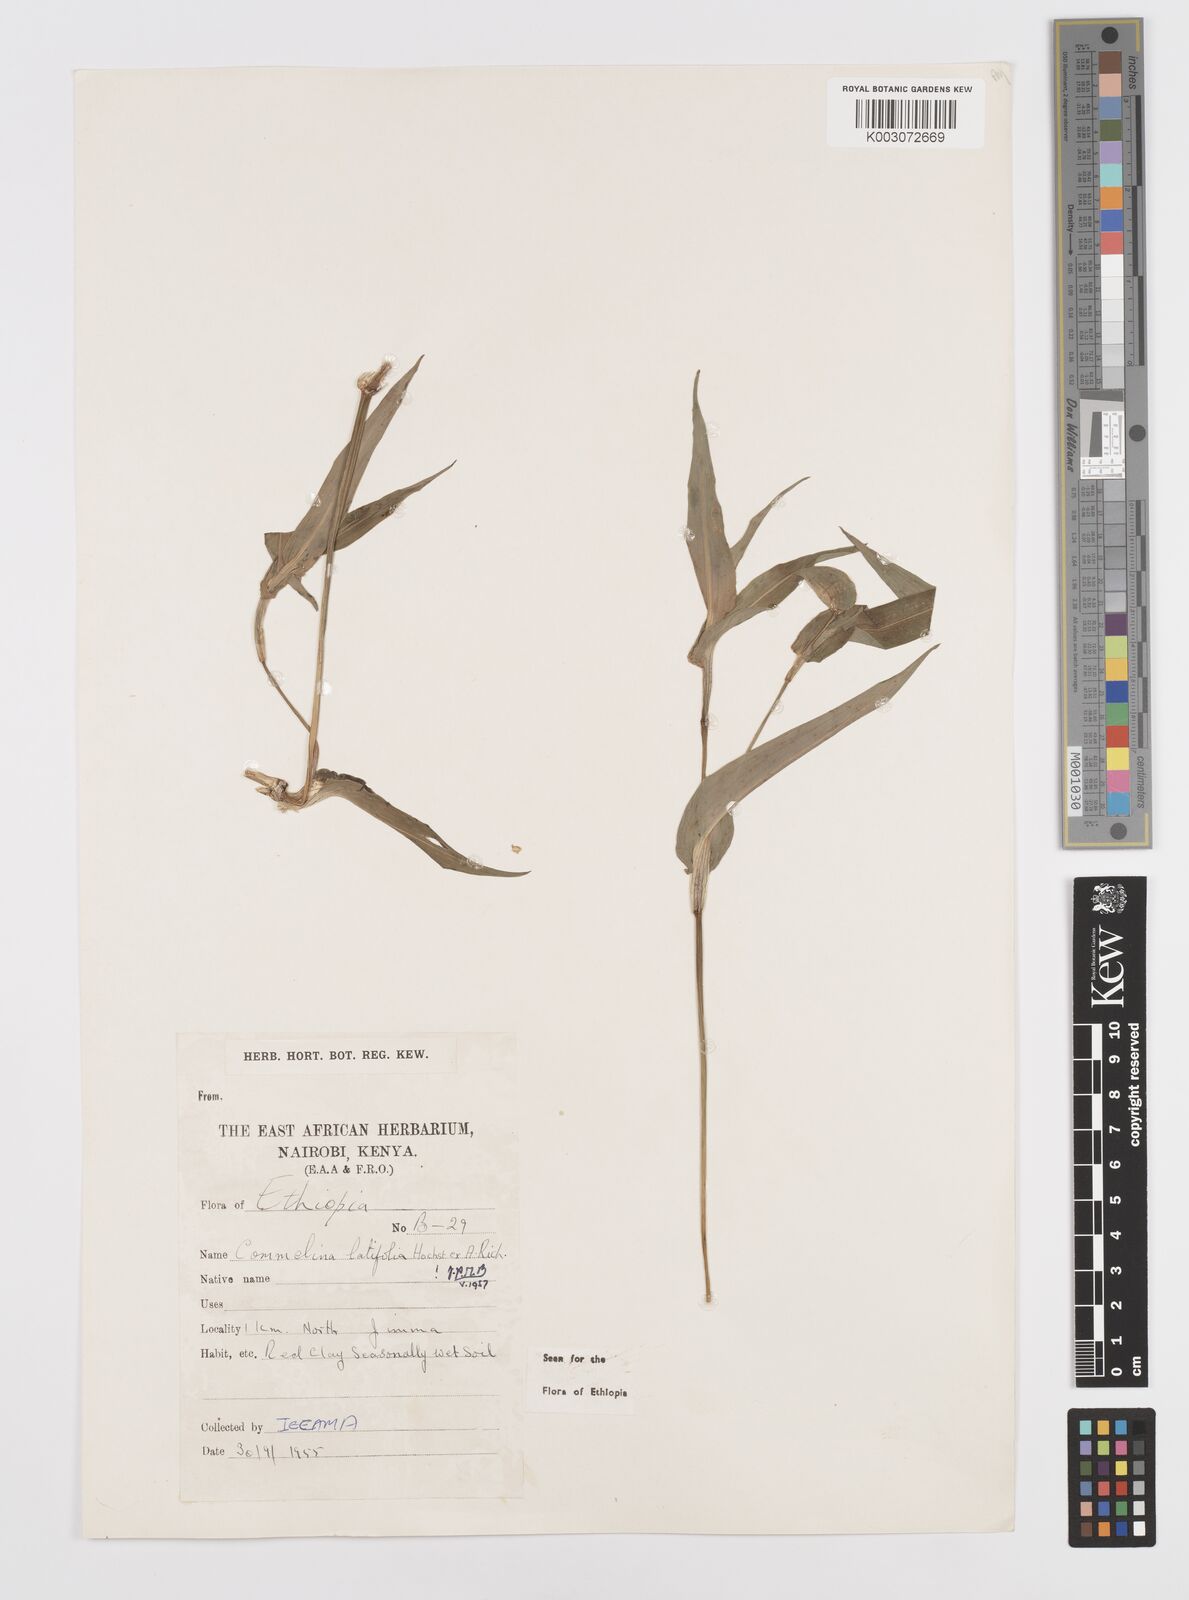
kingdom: Plantae
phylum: Tracheophyta
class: Liliopsida
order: Commelinales
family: Commelinaceae
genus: Commelina
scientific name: Commelina imberbis
